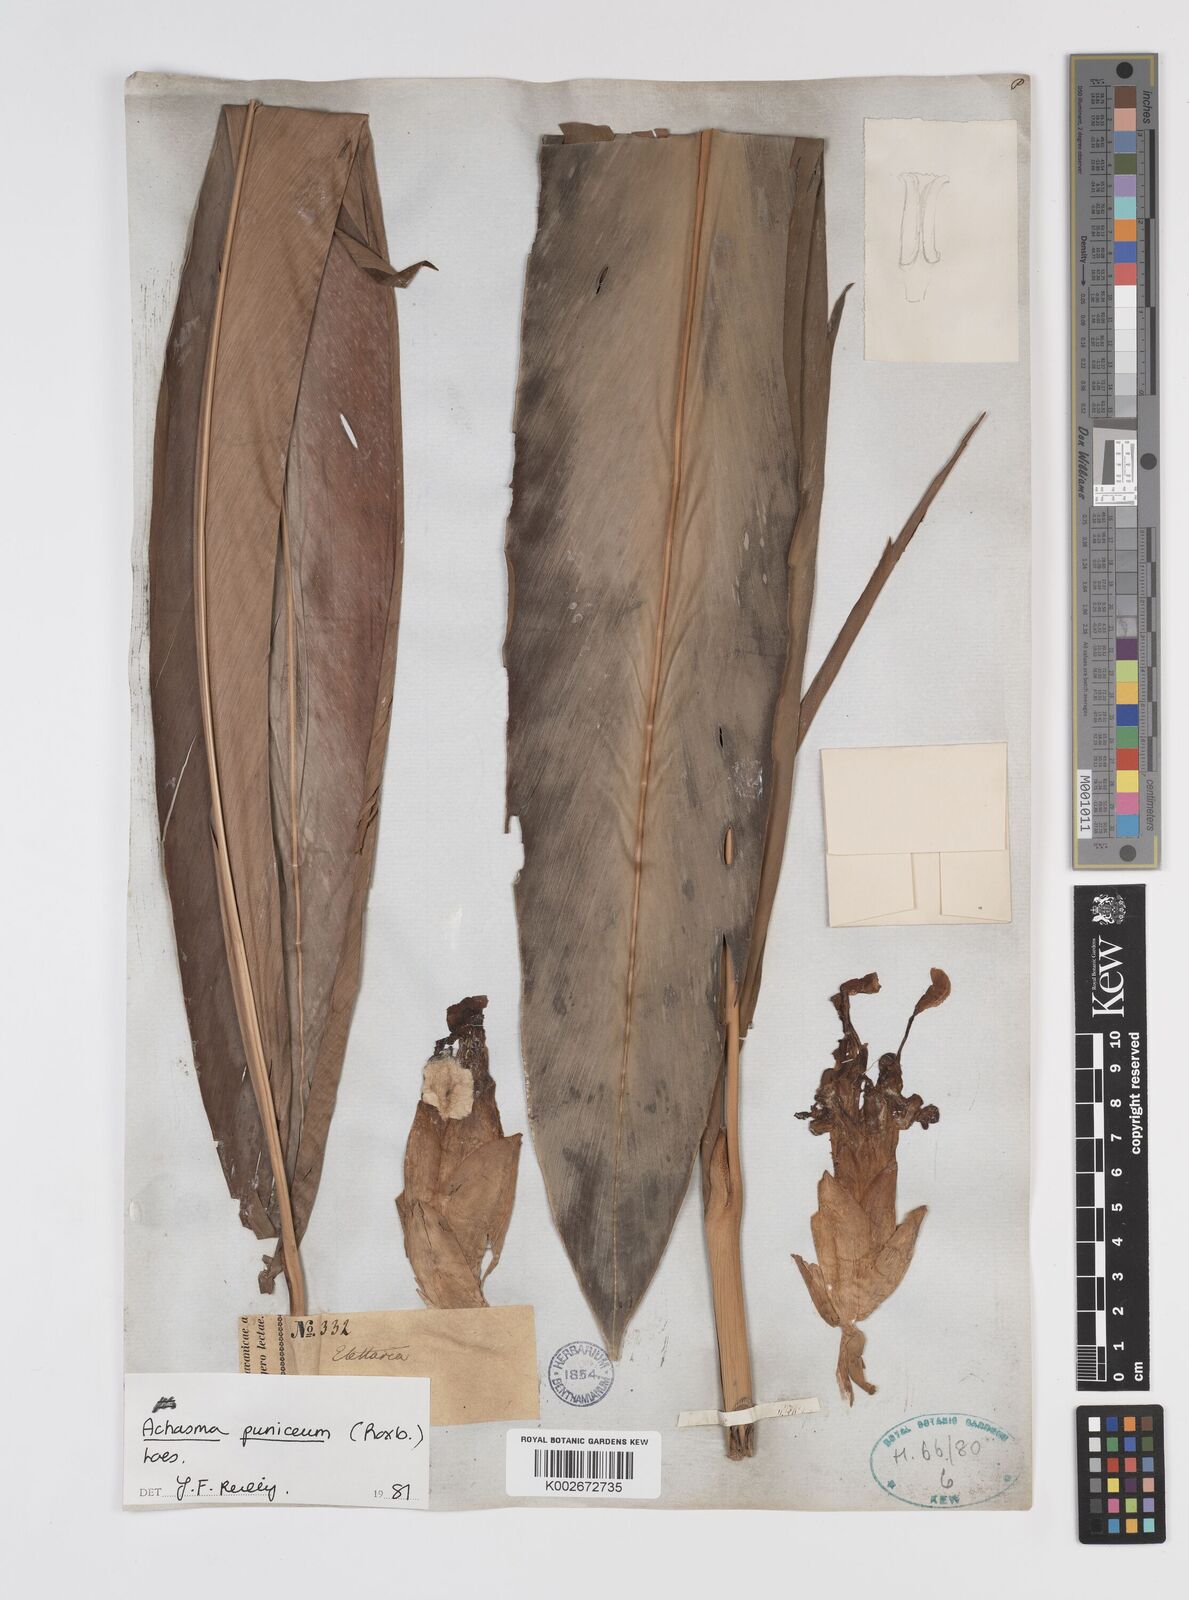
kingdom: Plantae
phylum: Tracheophyta
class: Liliopsida
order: Zingiberales
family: Zingiberaceae
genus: Etlingera
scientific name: Etlingera coccinea
